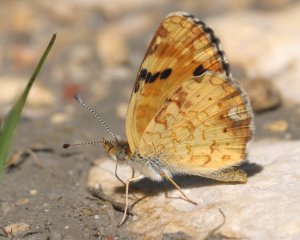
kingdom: Animalia
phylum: Arthropoda
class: Insecta
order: Lepidoptera
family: Nymphalidae
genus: Phyciodes
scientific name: Phyciodes batesii
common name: Tawny Crescent
